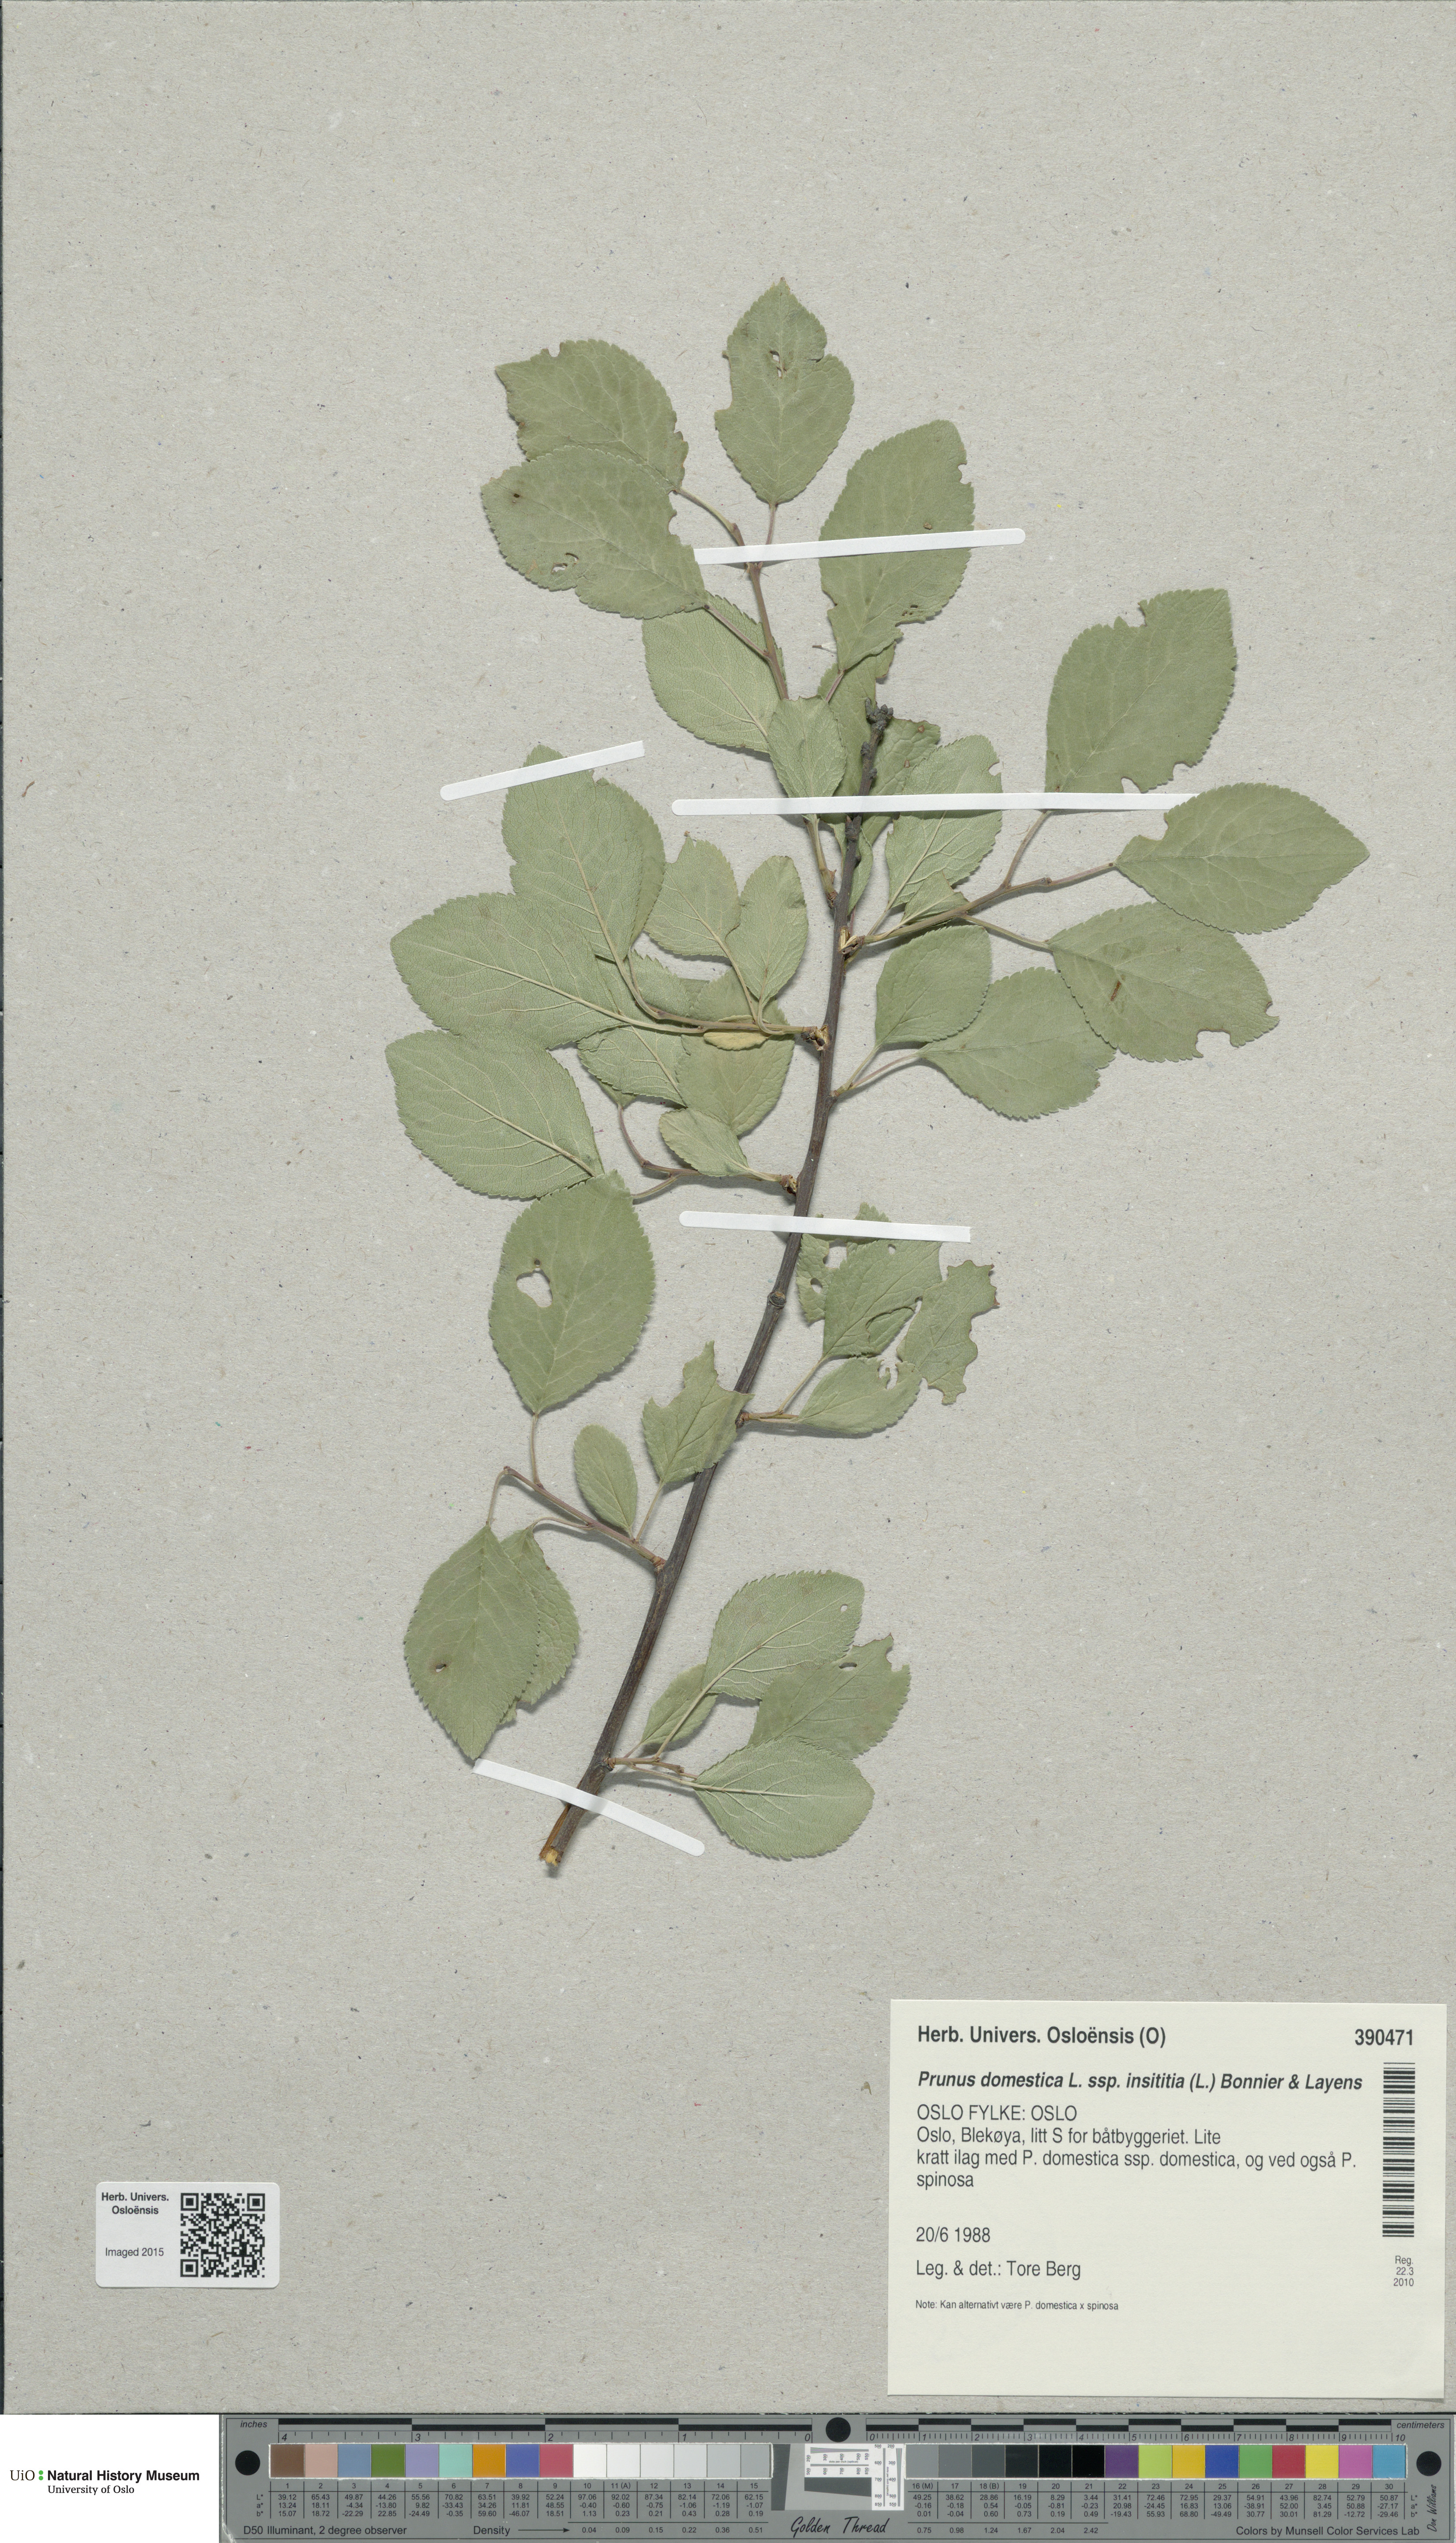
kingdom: Plantae
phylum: Tracheophyta
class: Magnoliopsida
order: Rosales
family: Rosaceae
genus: Prunus
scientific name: Prunus domestica
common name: Wild plum
